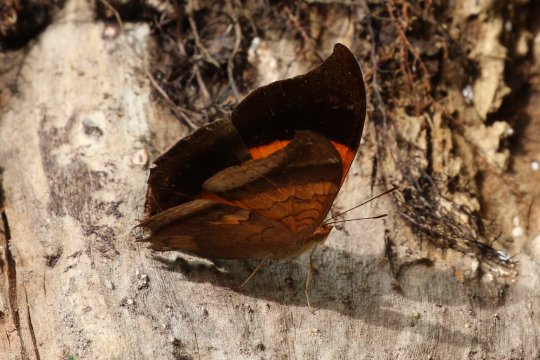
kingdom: Animalia
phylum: Arthropoda
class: Insecta
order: Lepidoptera
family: Nymphalidae
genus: Marpesia
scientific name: Marpesia furcula
